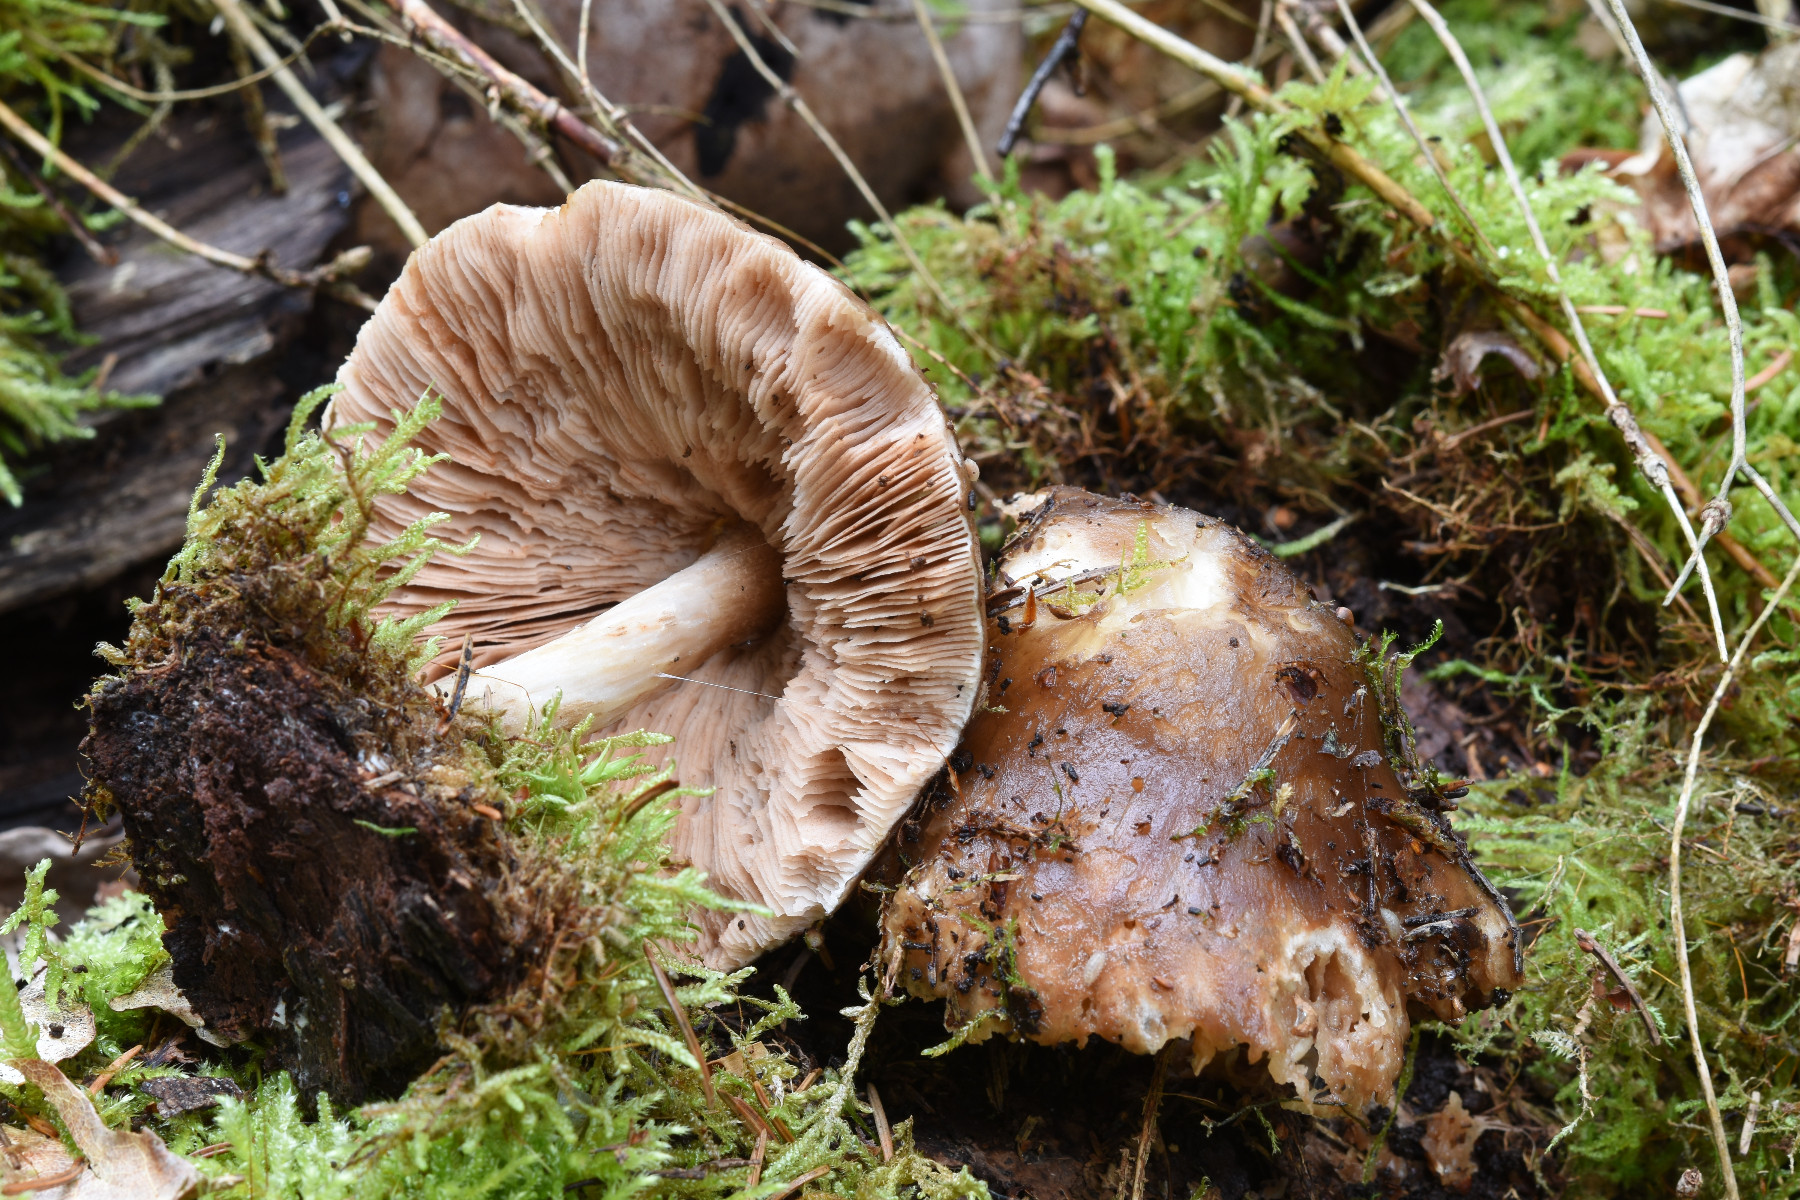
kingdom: Fungi
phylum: Basidiomycota
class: Agaricomycetes
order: Agaricales
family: Pluteaceae
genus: Pluteus
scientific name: Pluteus cervinus
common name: sodfarvet skærmhat
